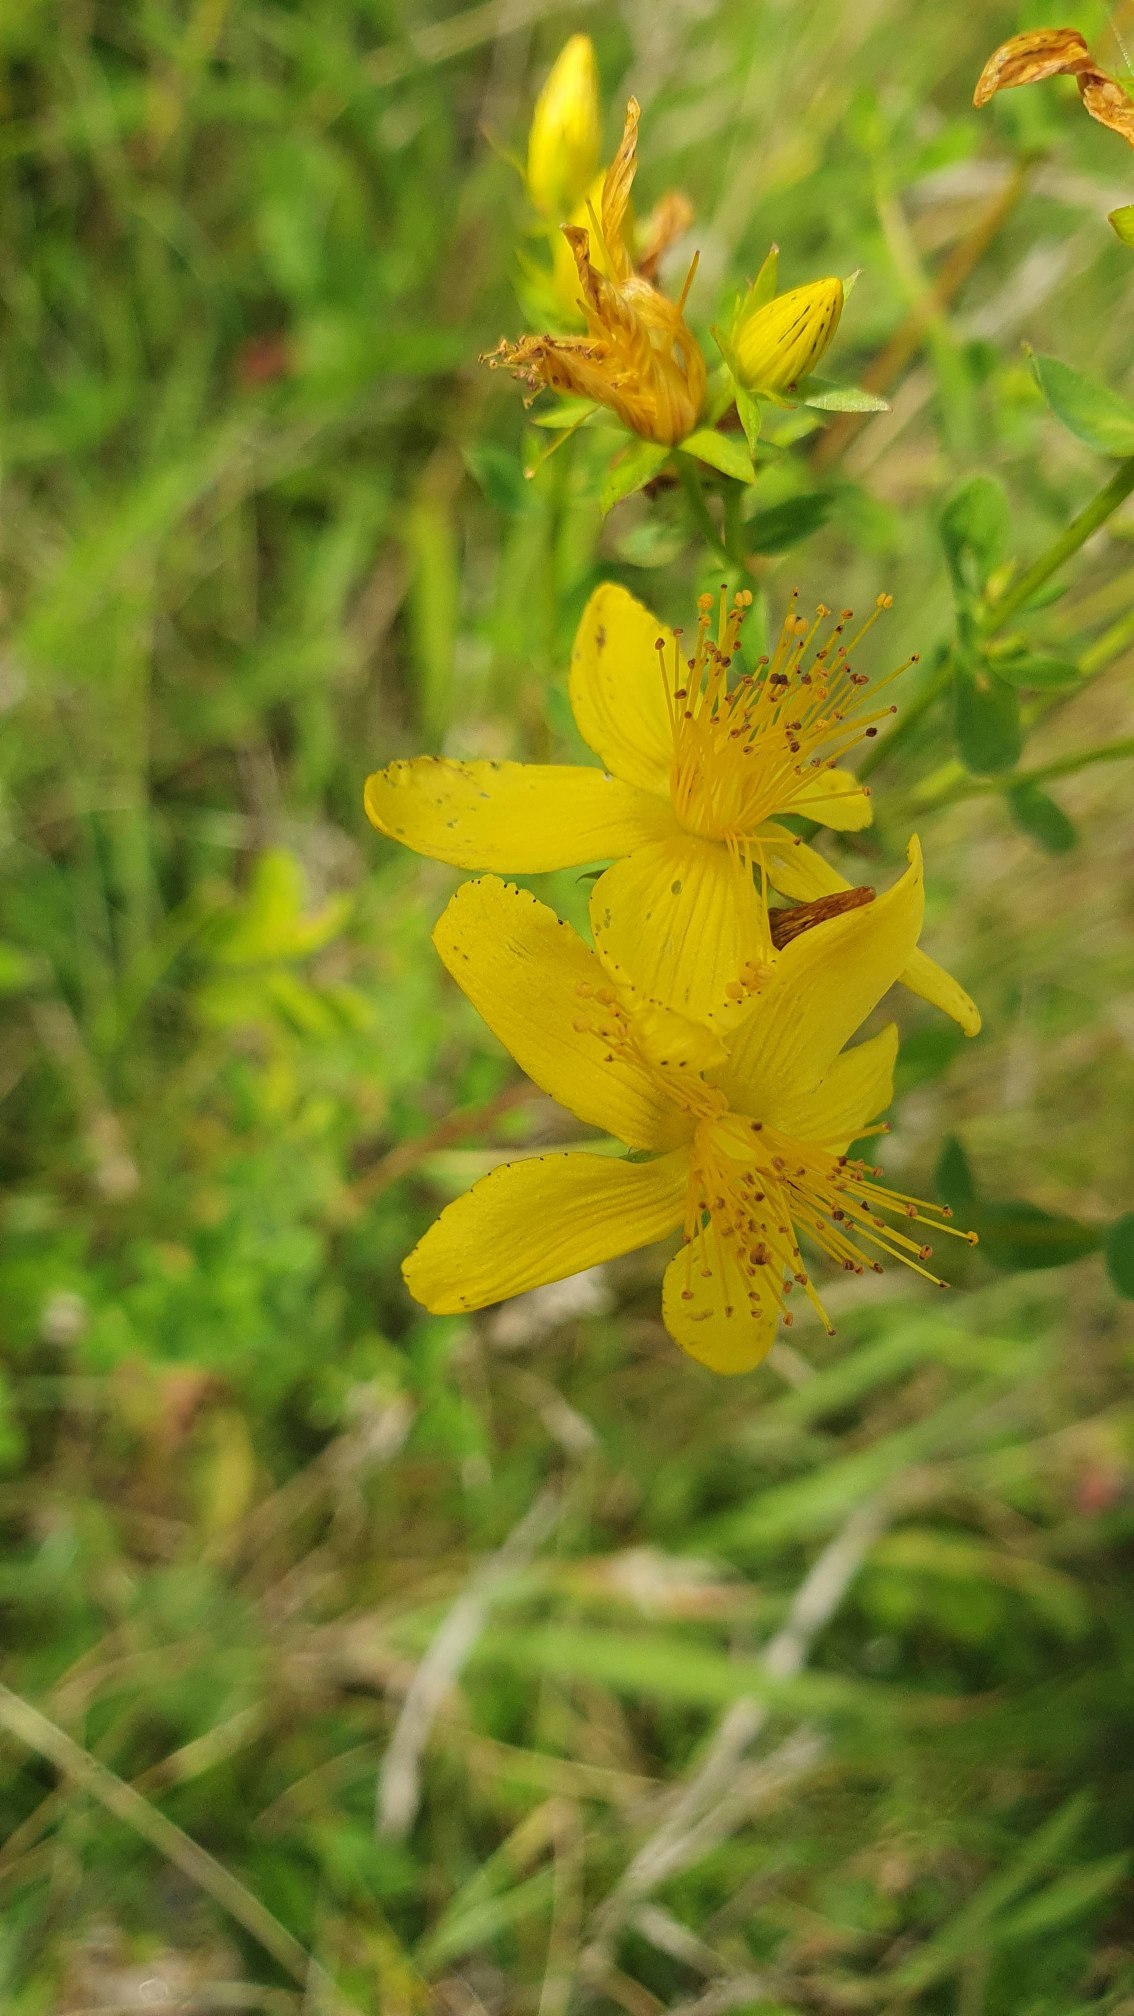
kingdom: Plantae
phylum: Tracheophyta
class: Magnoliopsida
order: Malpighiales
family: Hypericaceae
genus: Hypericum
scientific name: Hypericum perforatum
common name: Prikbladet perikon
